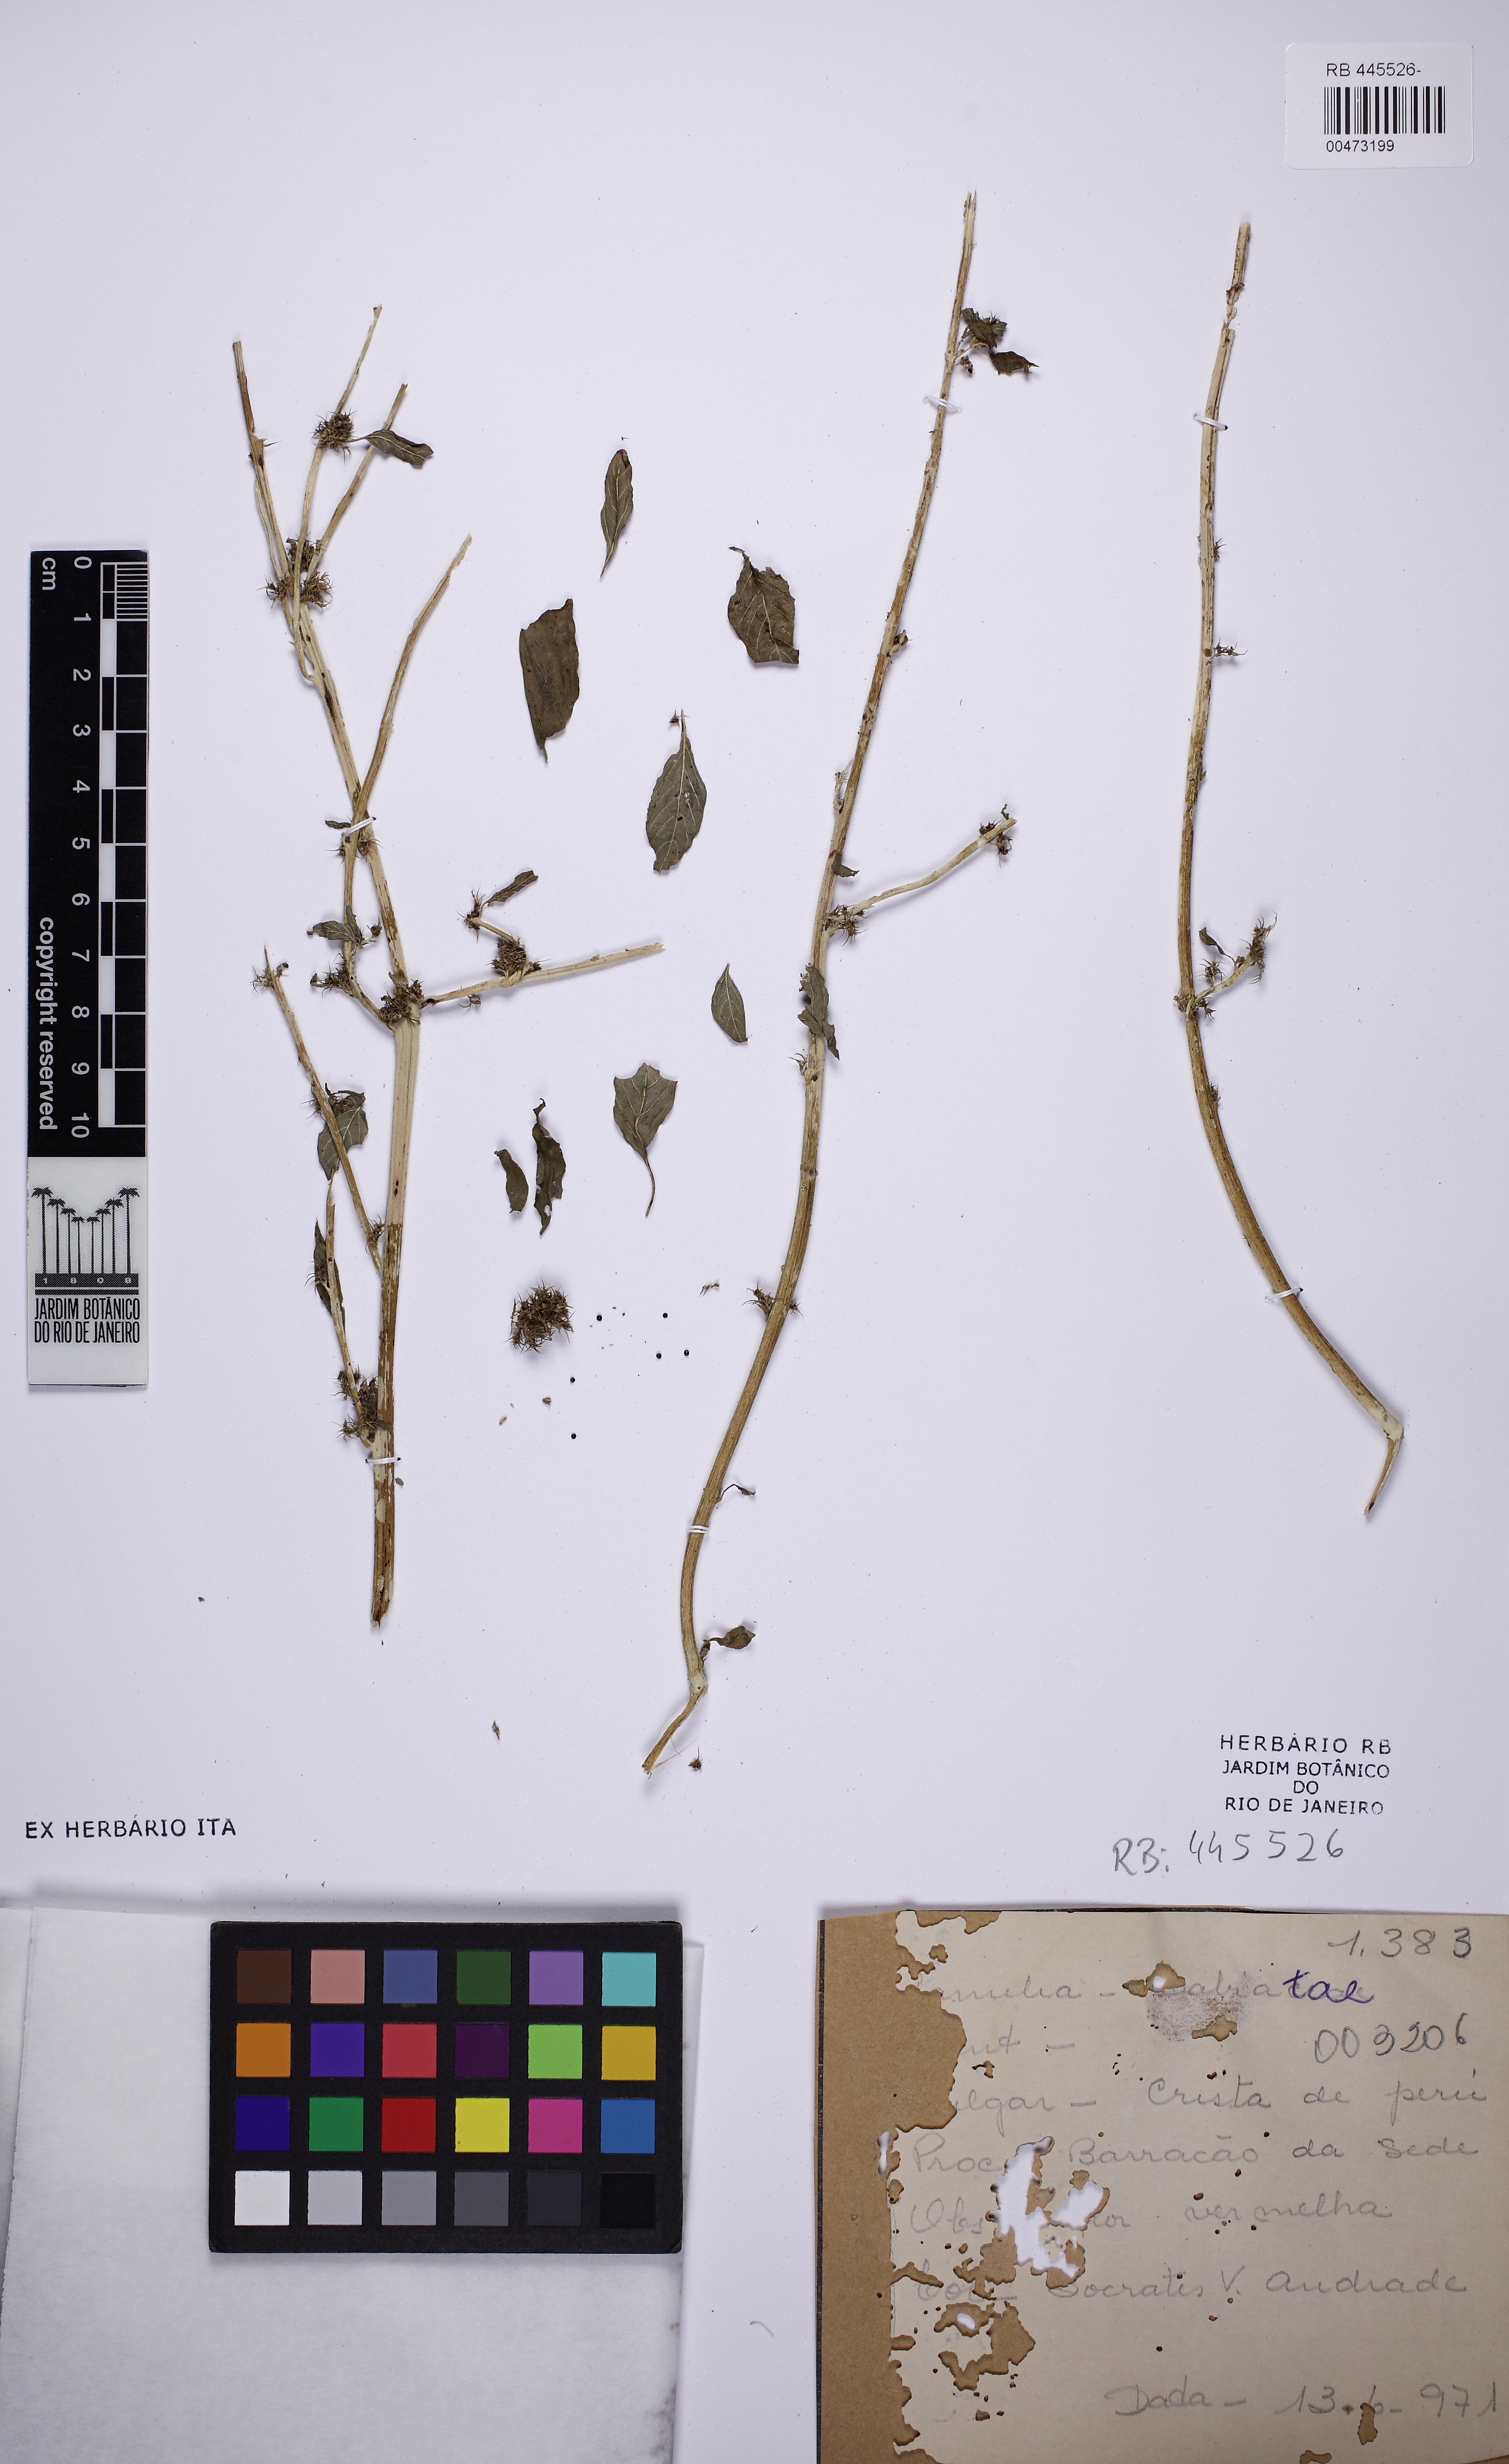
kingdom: Plantae
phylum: Tracheophyta
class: Magnoliopsida
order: Lamiales
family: Lamiaceae
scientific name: Lamiaceae
